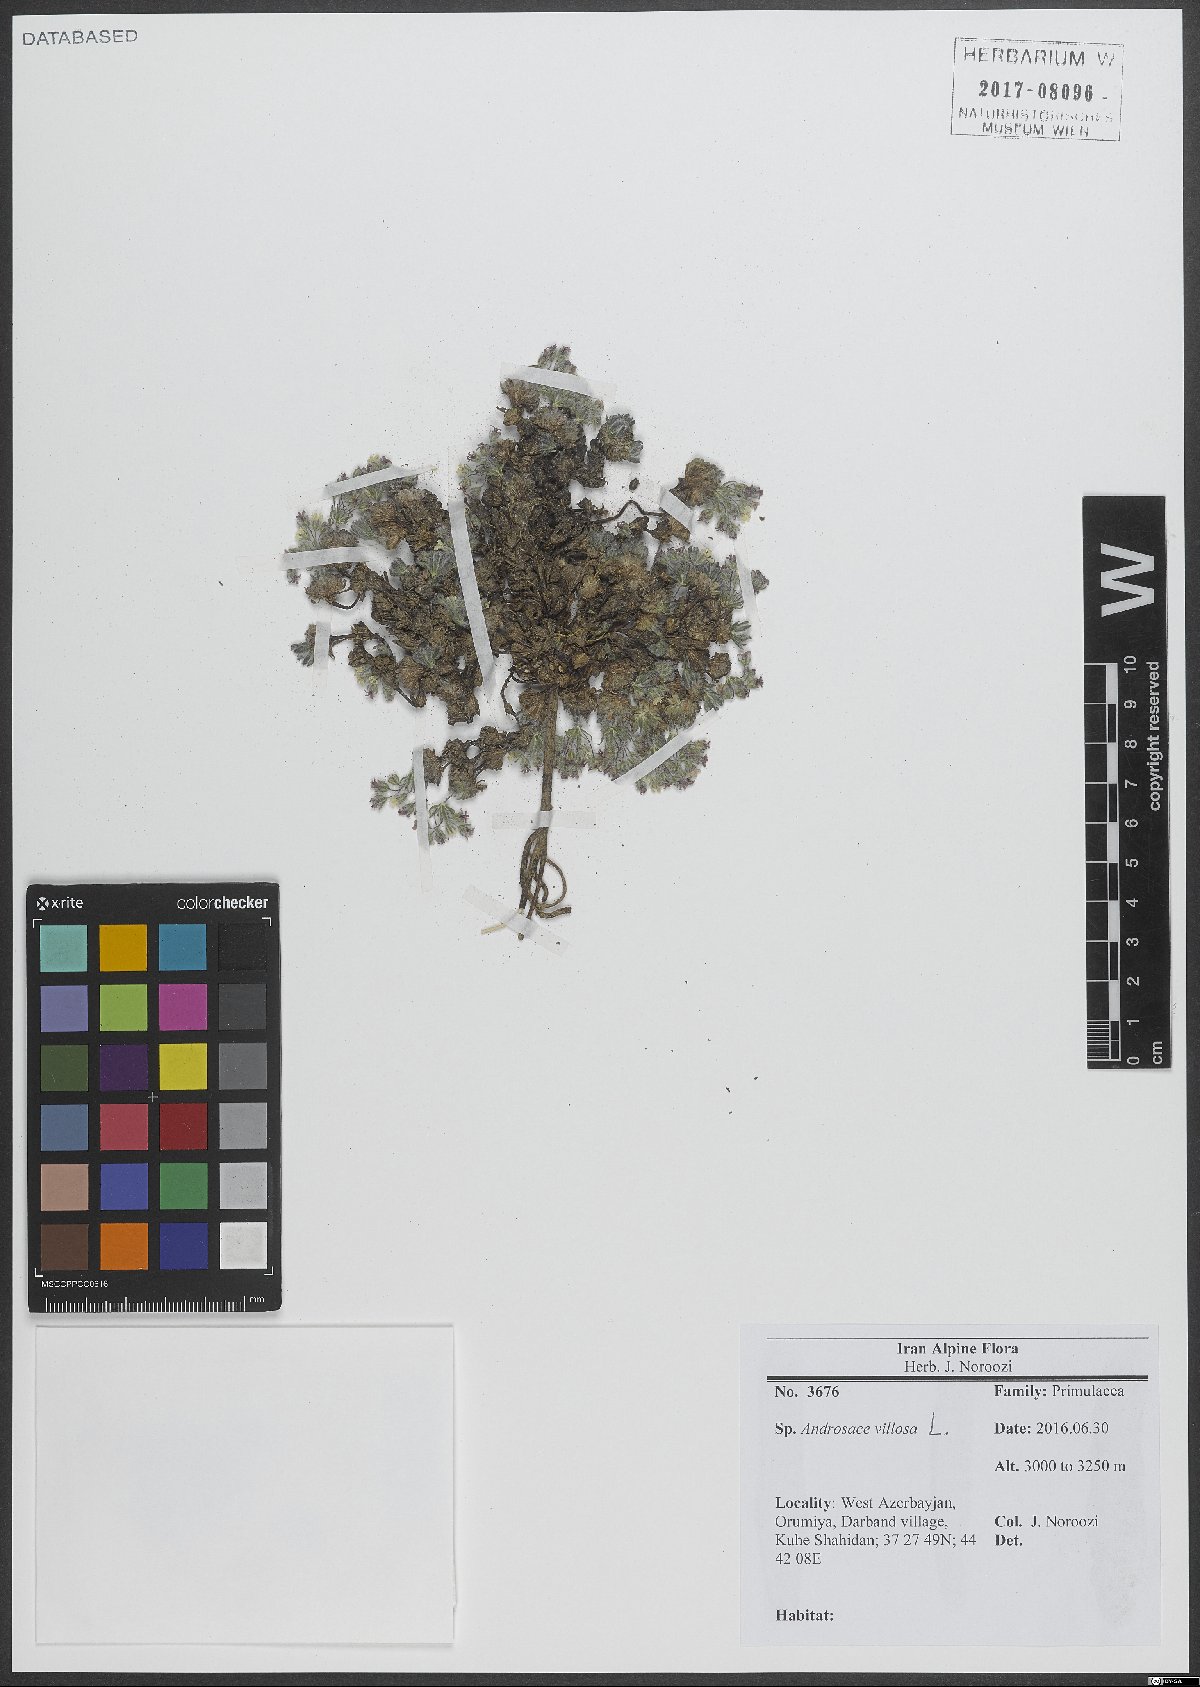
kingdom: Plantae
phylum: Tracheophyta
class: Magnoliopsida
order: Ericales
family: Primulaceae
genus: Androsace
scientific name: Androsace villosa
